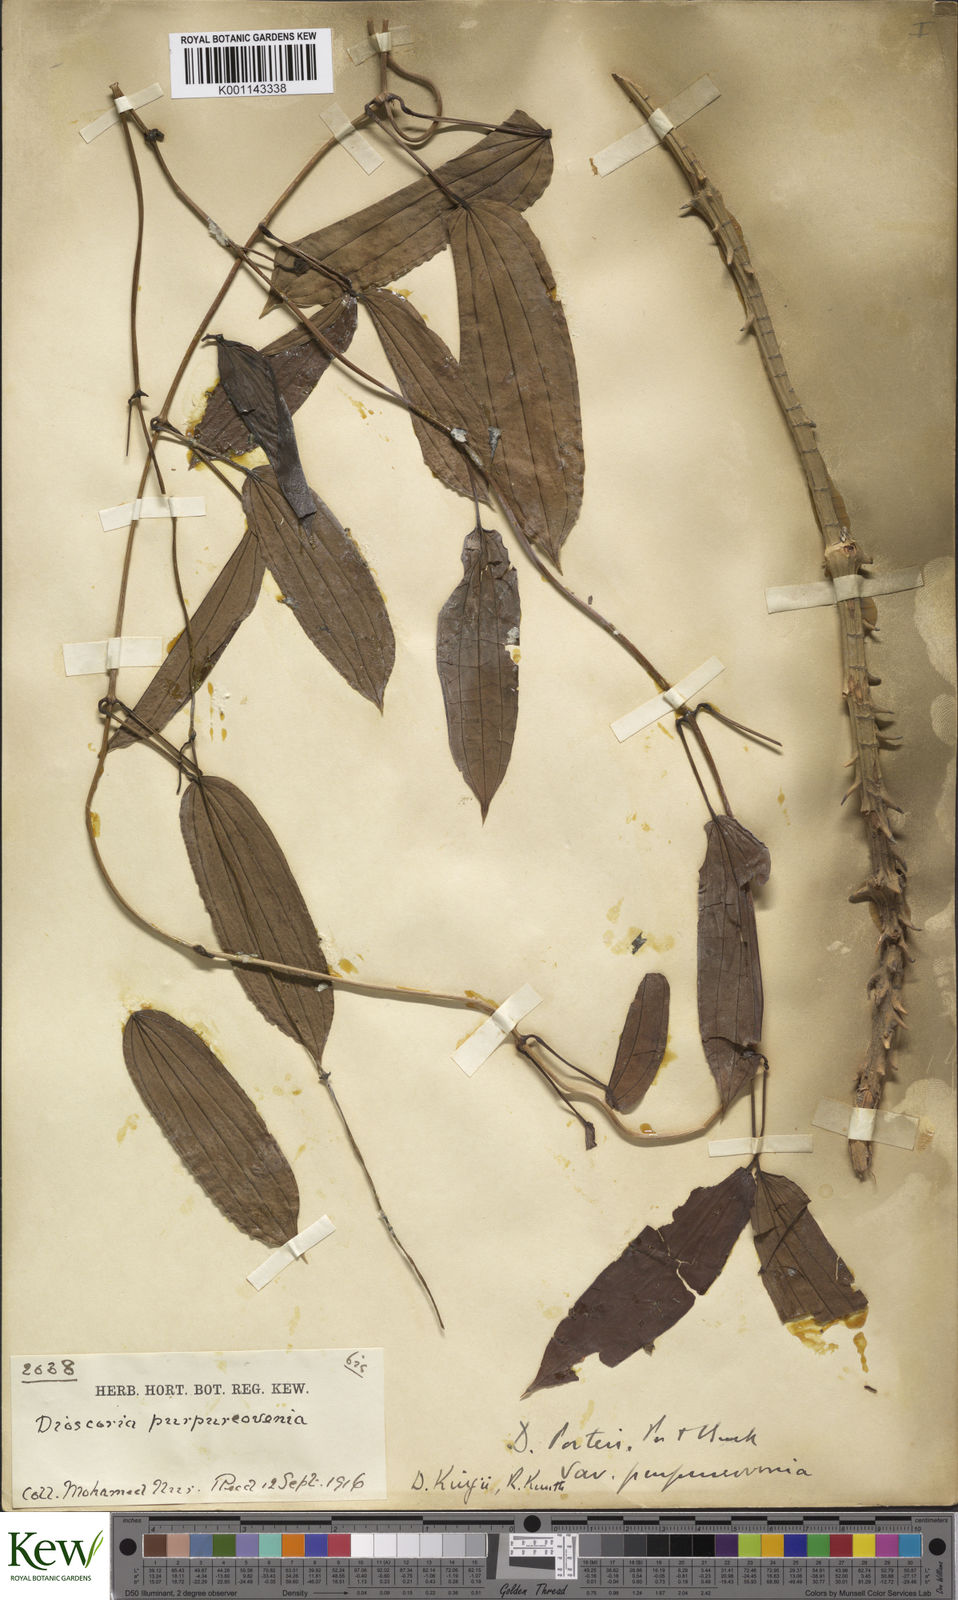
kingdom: Plantae
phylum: Tracheophyta
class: Liliopsida
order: Dioscoreales
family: Dioscoreaceae
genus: Dioscorea
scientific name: Dioscorea kingii
